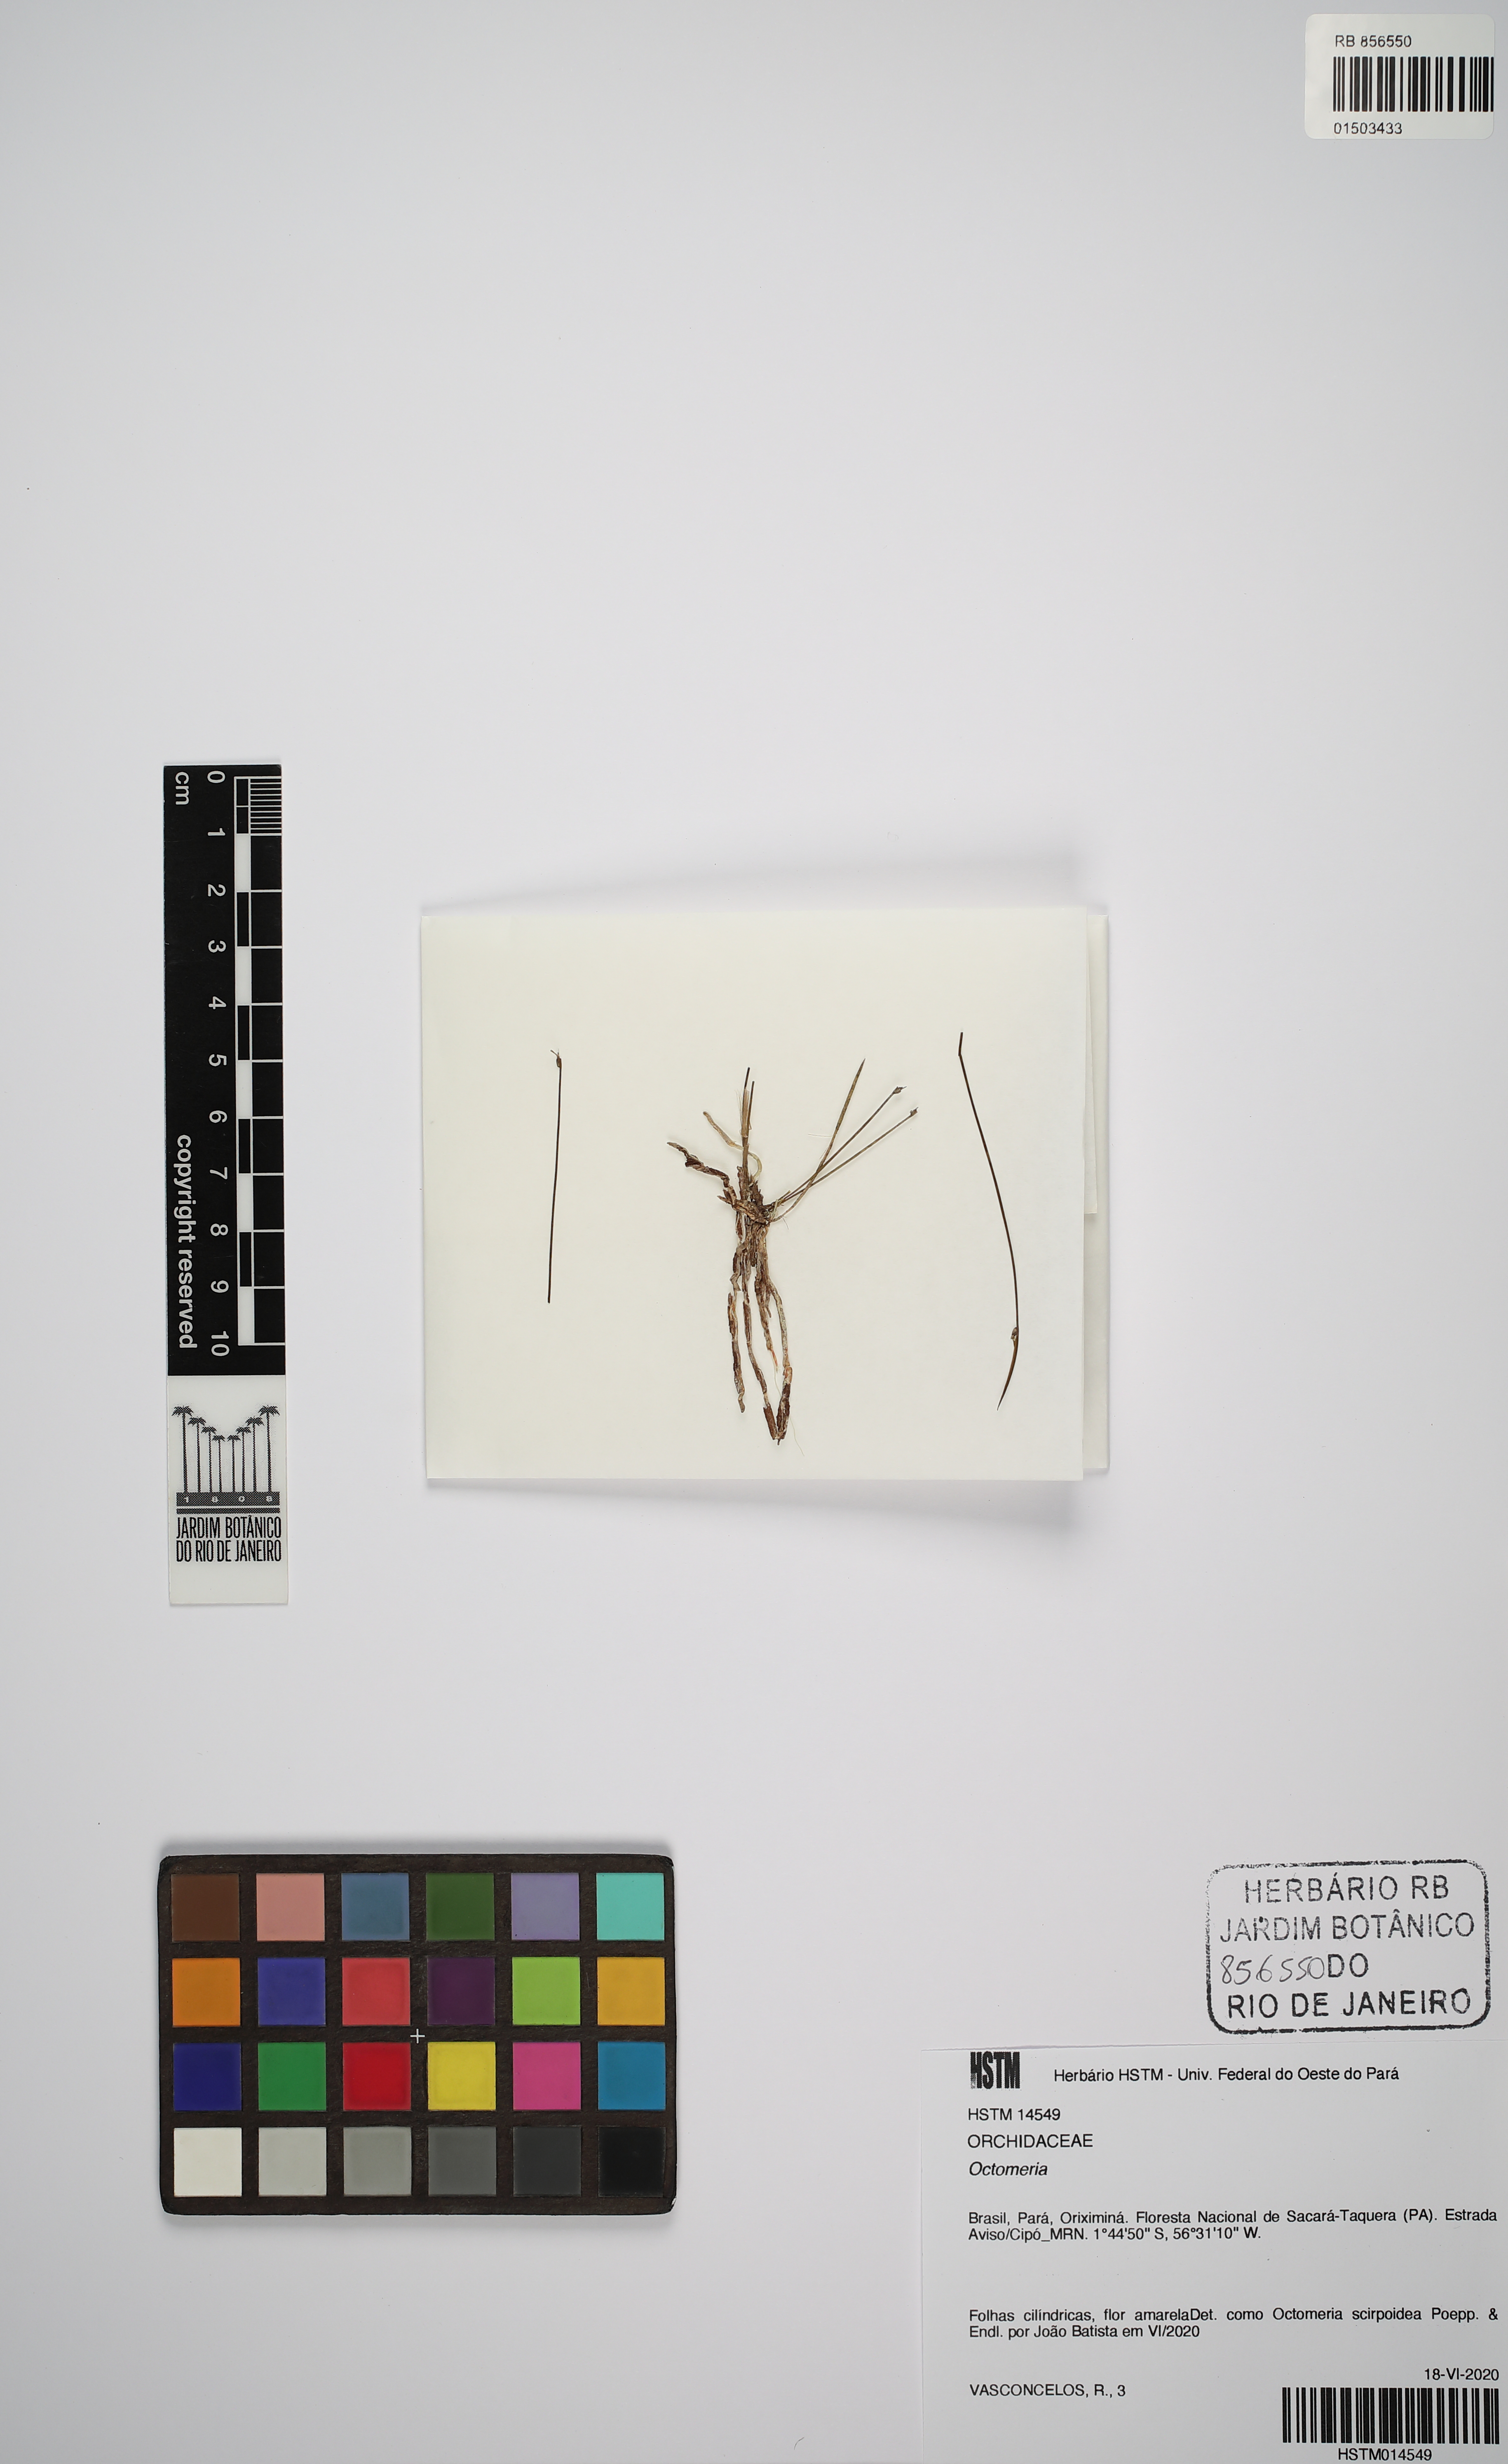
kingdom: Plantae
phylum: Tracheophyta
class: Liliopsida
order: Asparagales
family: Orchidaceae
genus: Octomeria
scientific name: Octomeria scirpoidea
